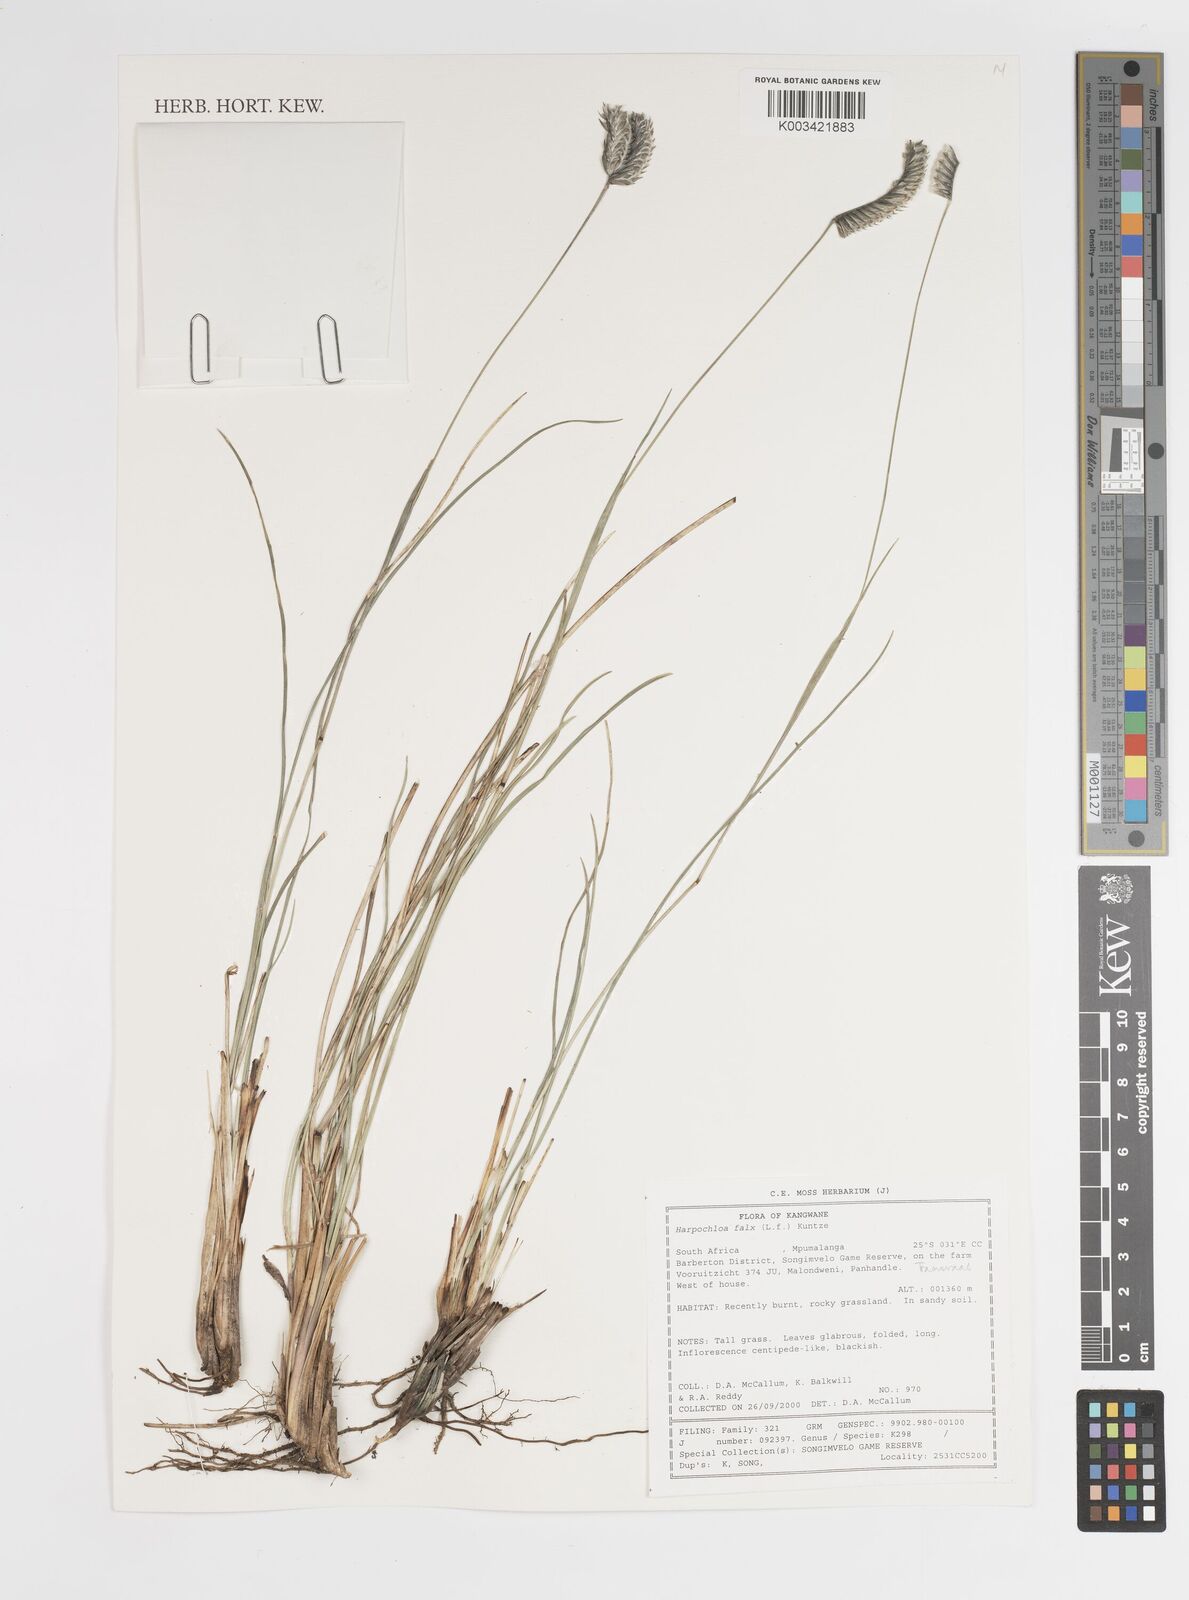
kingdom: Plantae
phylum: Tracheophyta
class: Liliopsida
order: Poales
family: Poaceae
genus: Harpochloa
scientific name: Harpochloa falx
